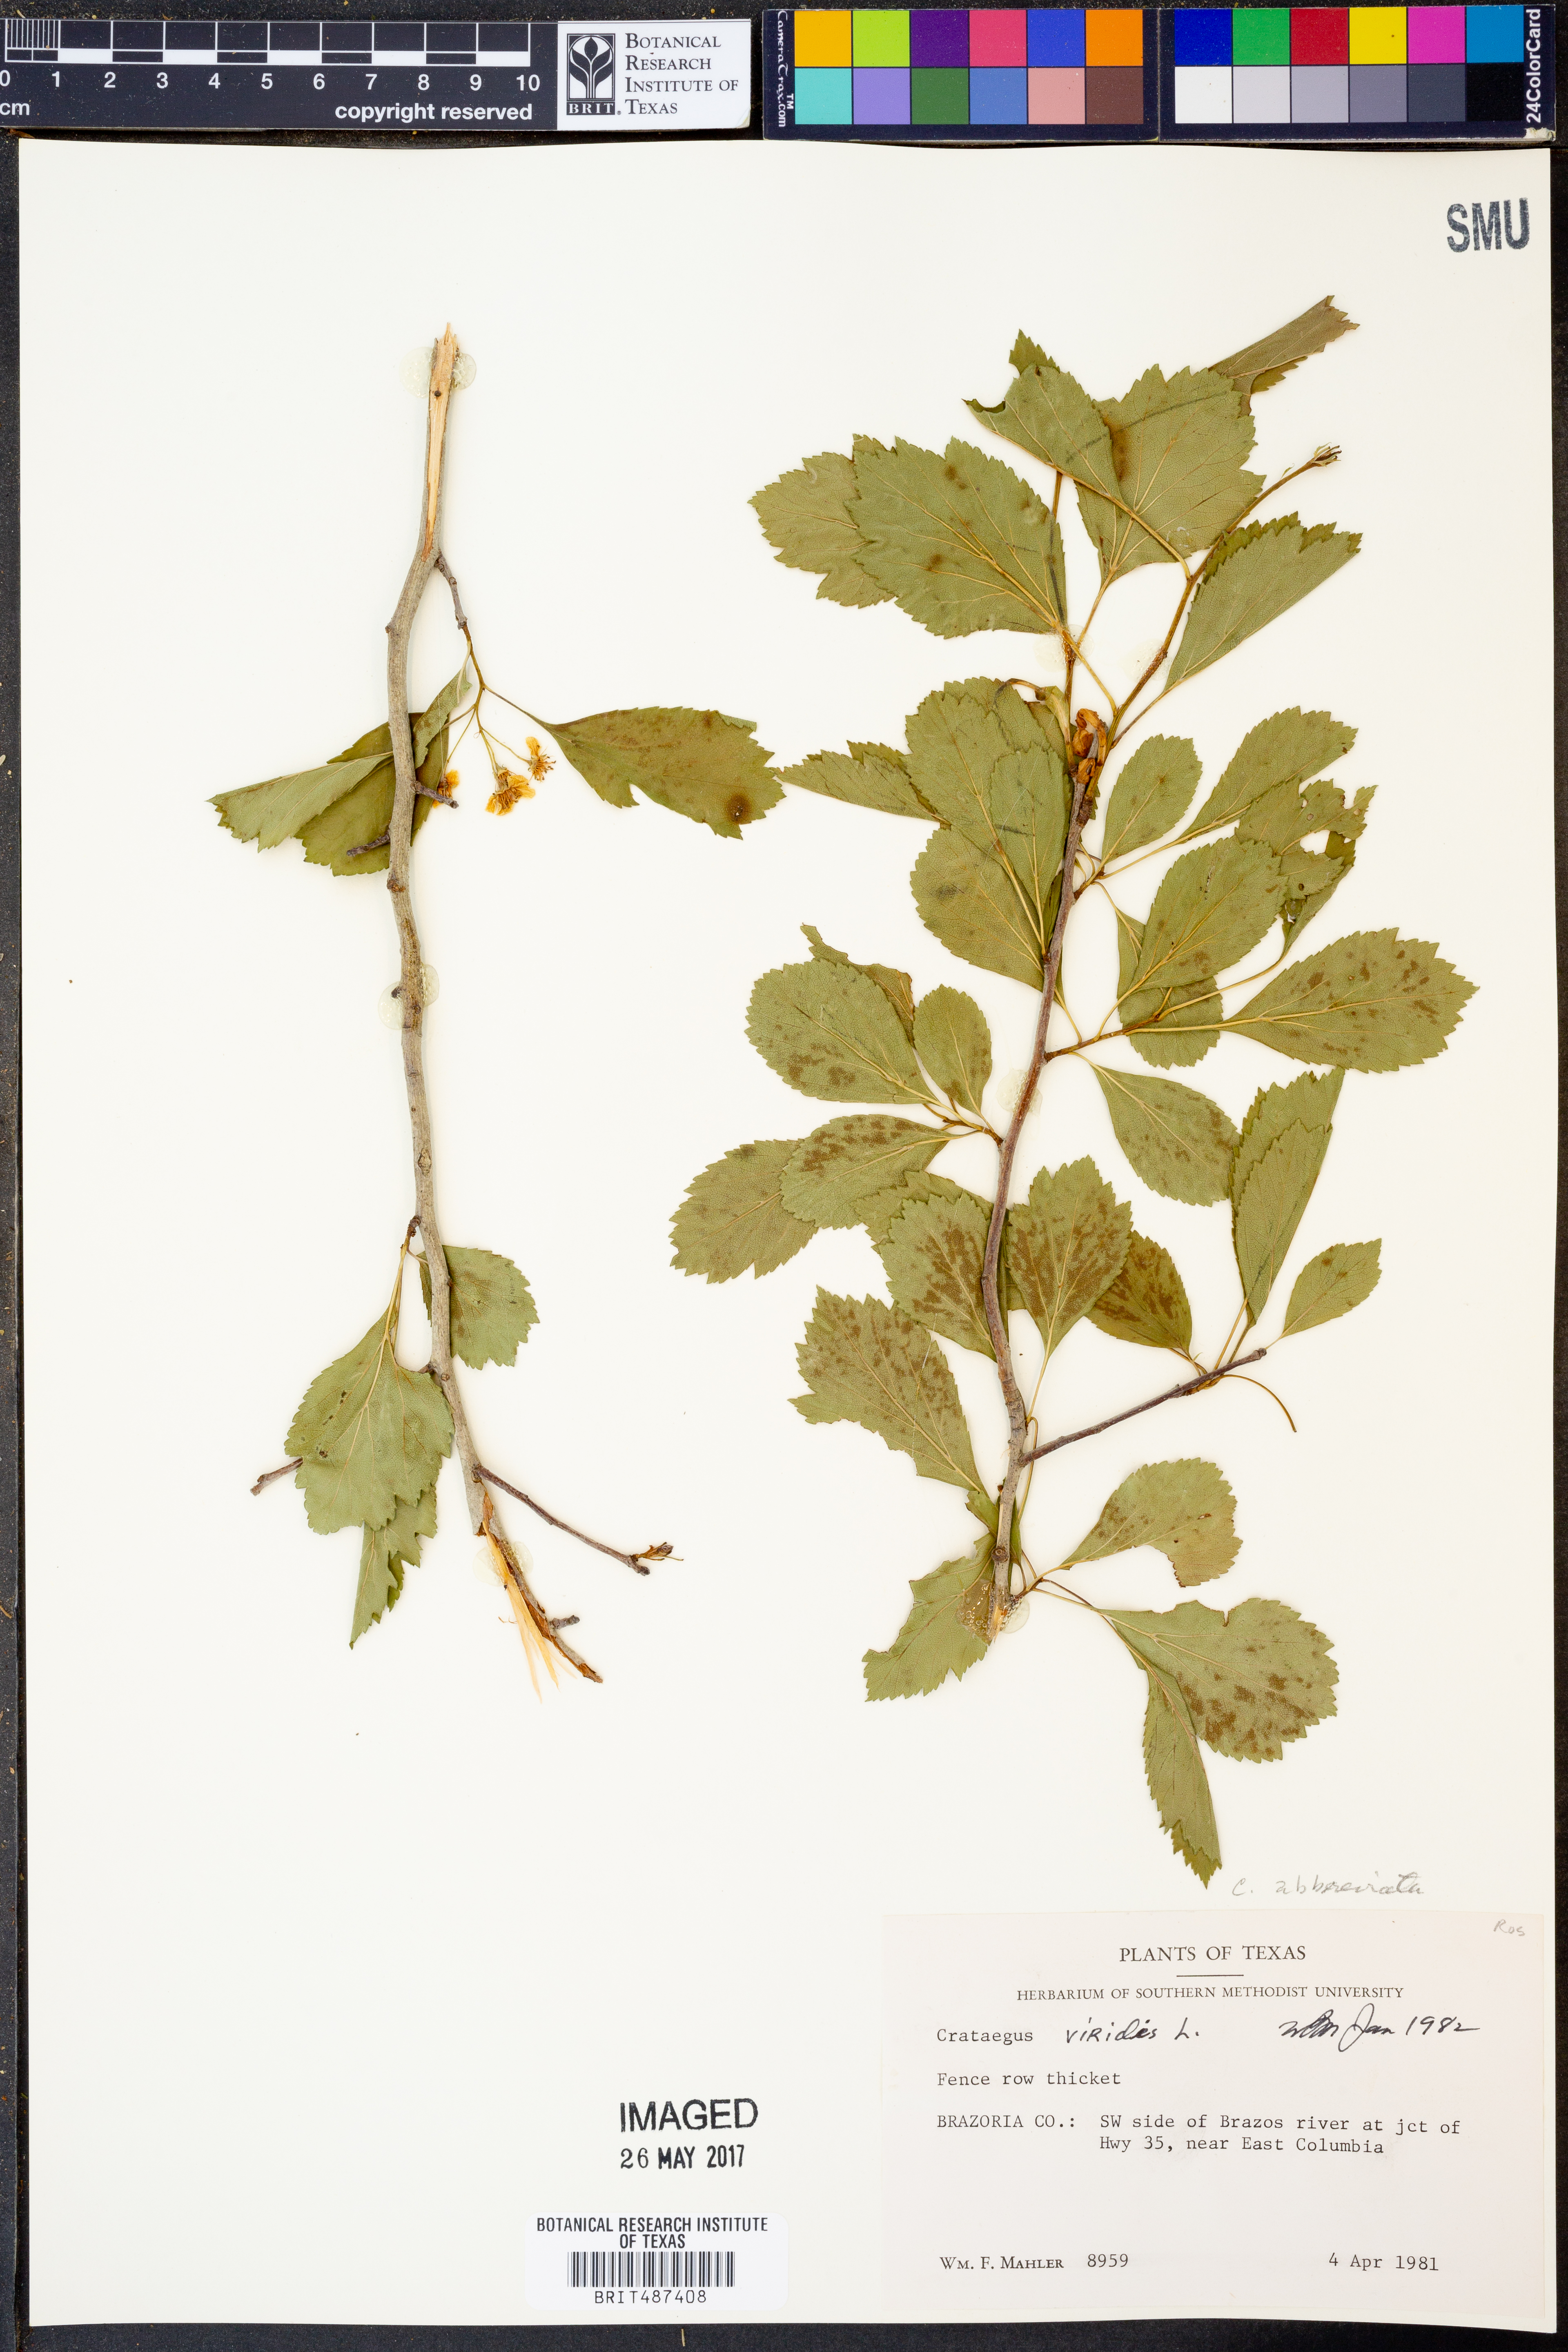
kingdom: Plantae
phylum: Tracheophyta
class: Magnoliopsida
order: Rosales
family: Rosaceae
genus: Crataegus
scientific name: Crataegus viridis
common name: Southernthorn
